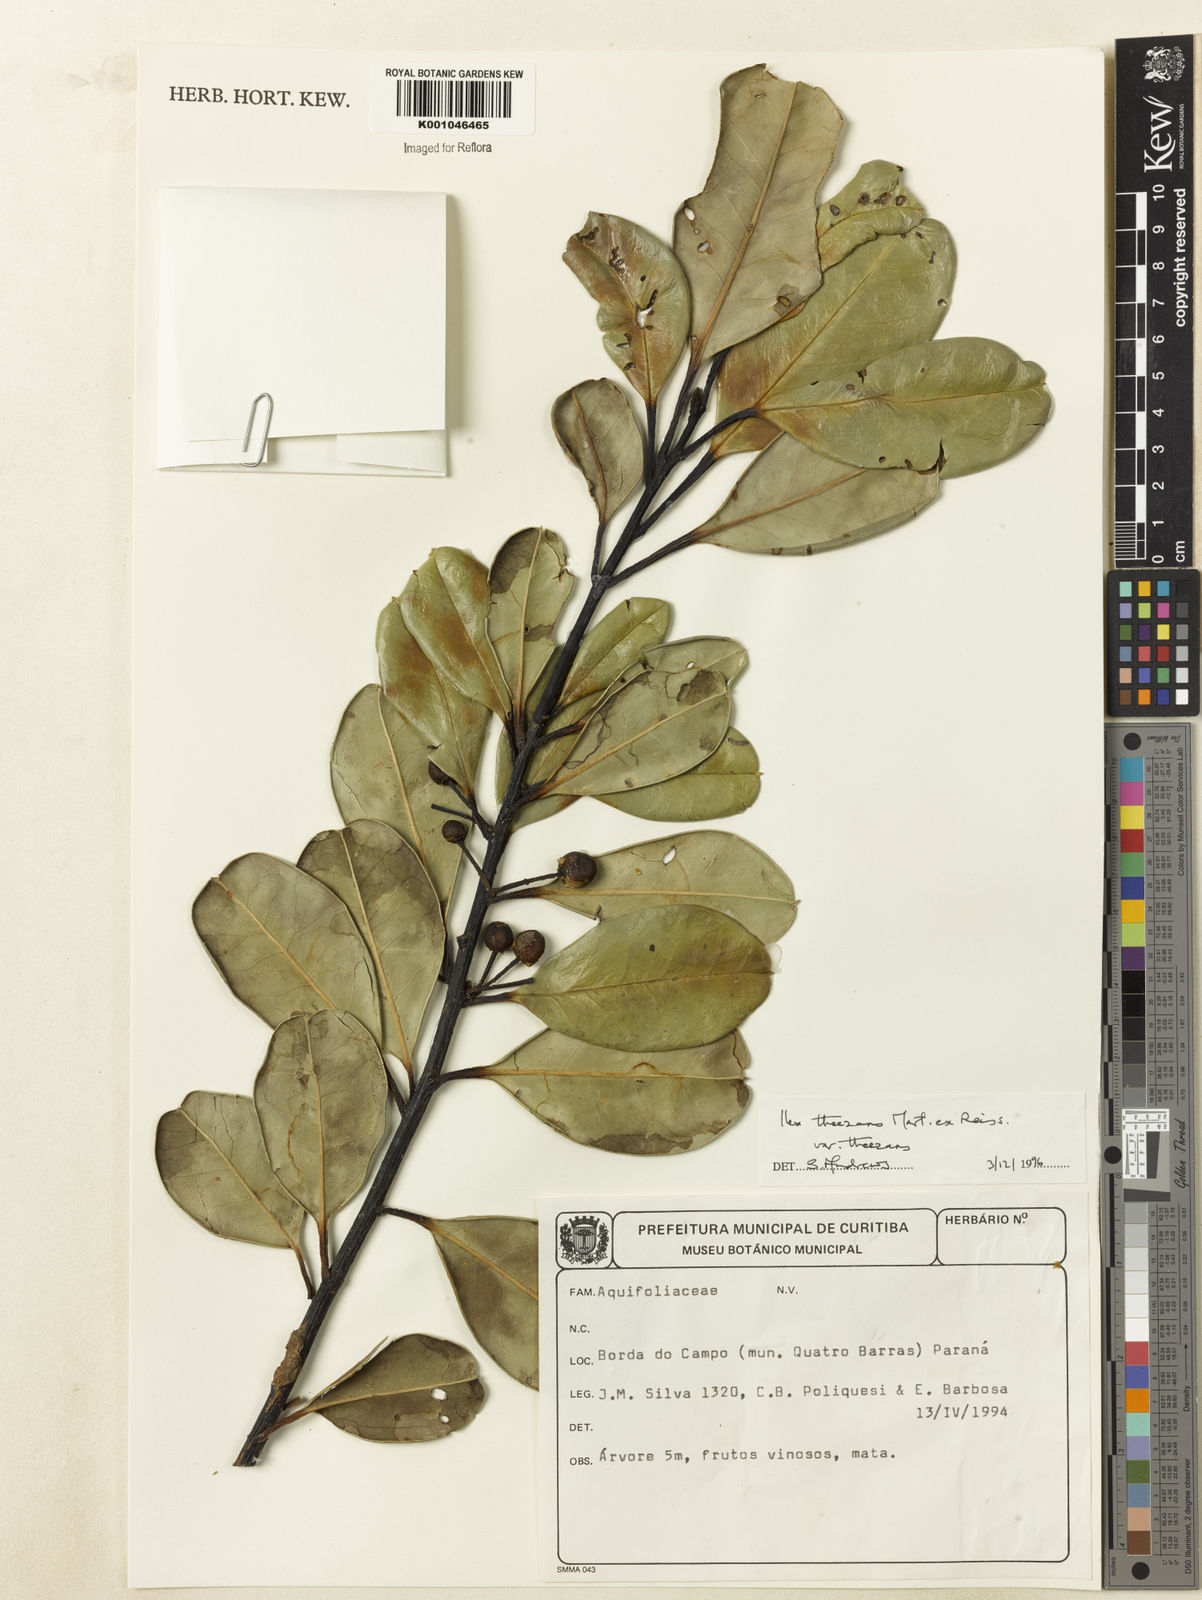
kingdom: Plantae
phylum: Tracheophyta
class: Magnoliopsida
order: Aquifoliales
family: Aquifoliaceae
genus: Ilex
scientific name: Ilex paraguariensis
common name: Paraguay tea
